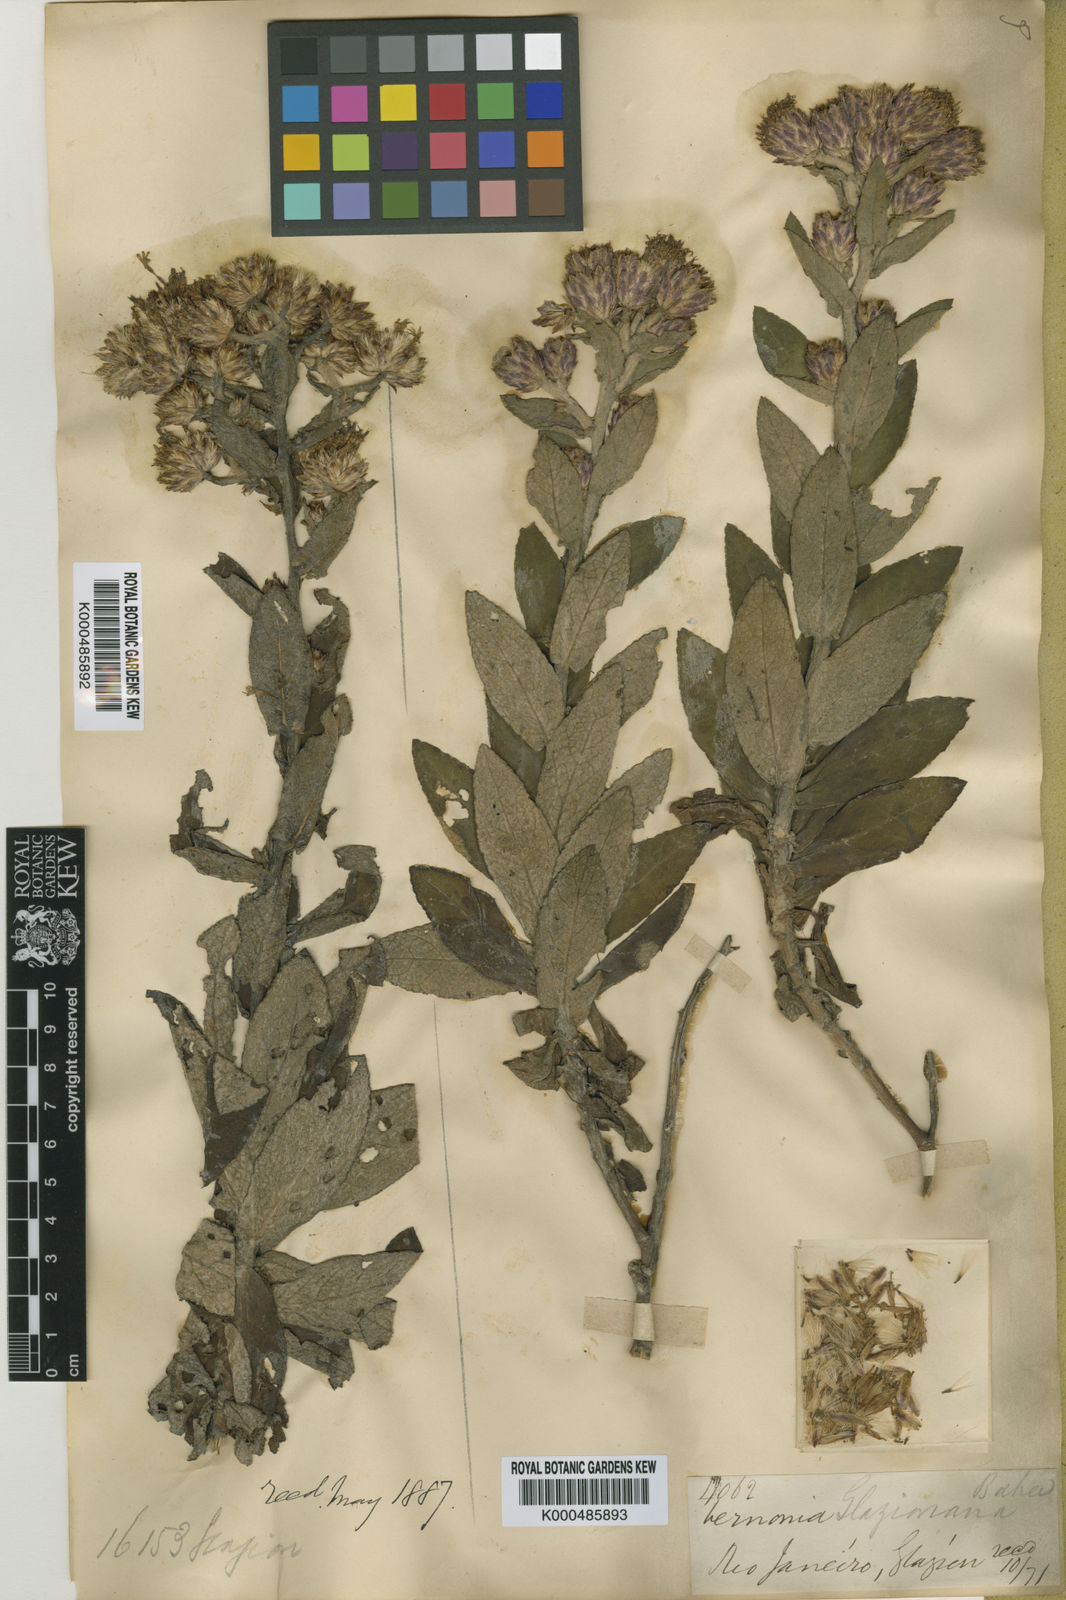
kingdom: Plantae
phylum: Tracheophyta
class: Magnoliopsida
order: Asterales
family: Asteraceae
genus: Lessingianthus
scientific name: Lessingianthus glaziovianus
